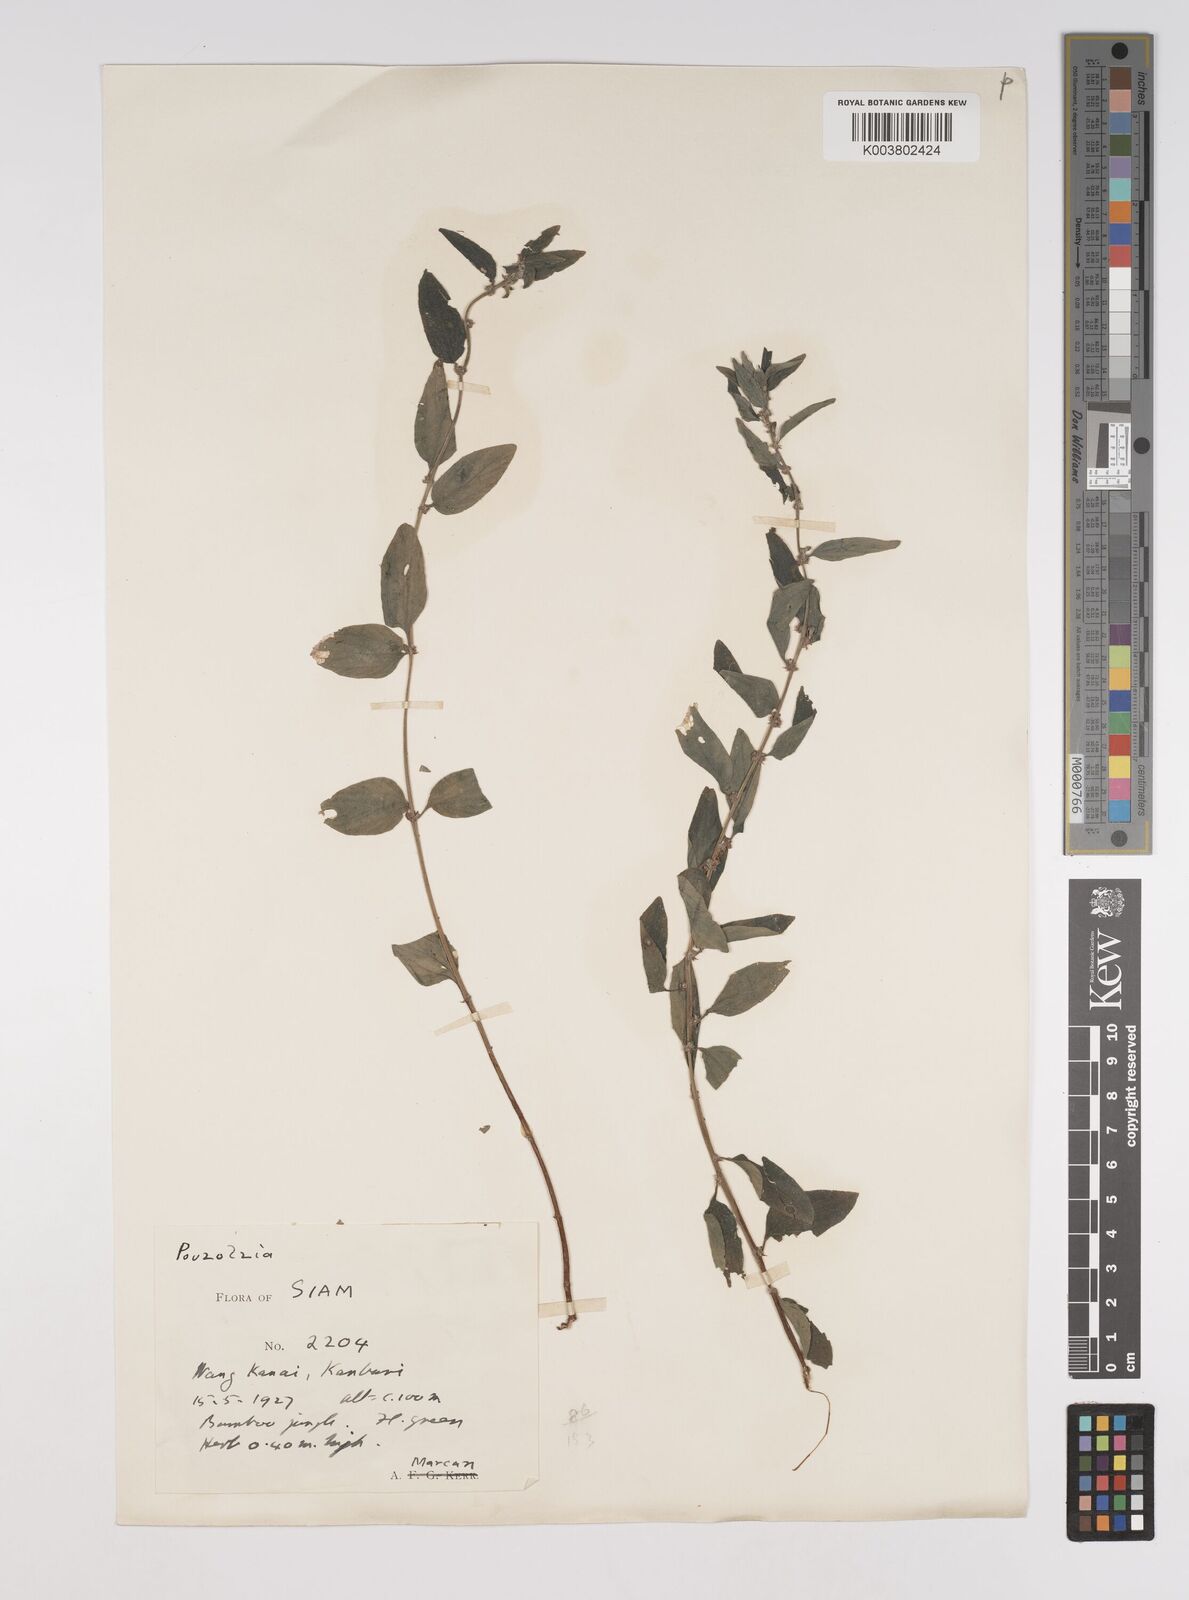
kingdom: Plantae
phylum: Tracheophyta
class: Magnoliopsida
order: Rosales
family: Urticaceae
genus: Pouzolzia
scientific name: Pouzolzia zeylanica
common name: Graceful pouzolzsbush
